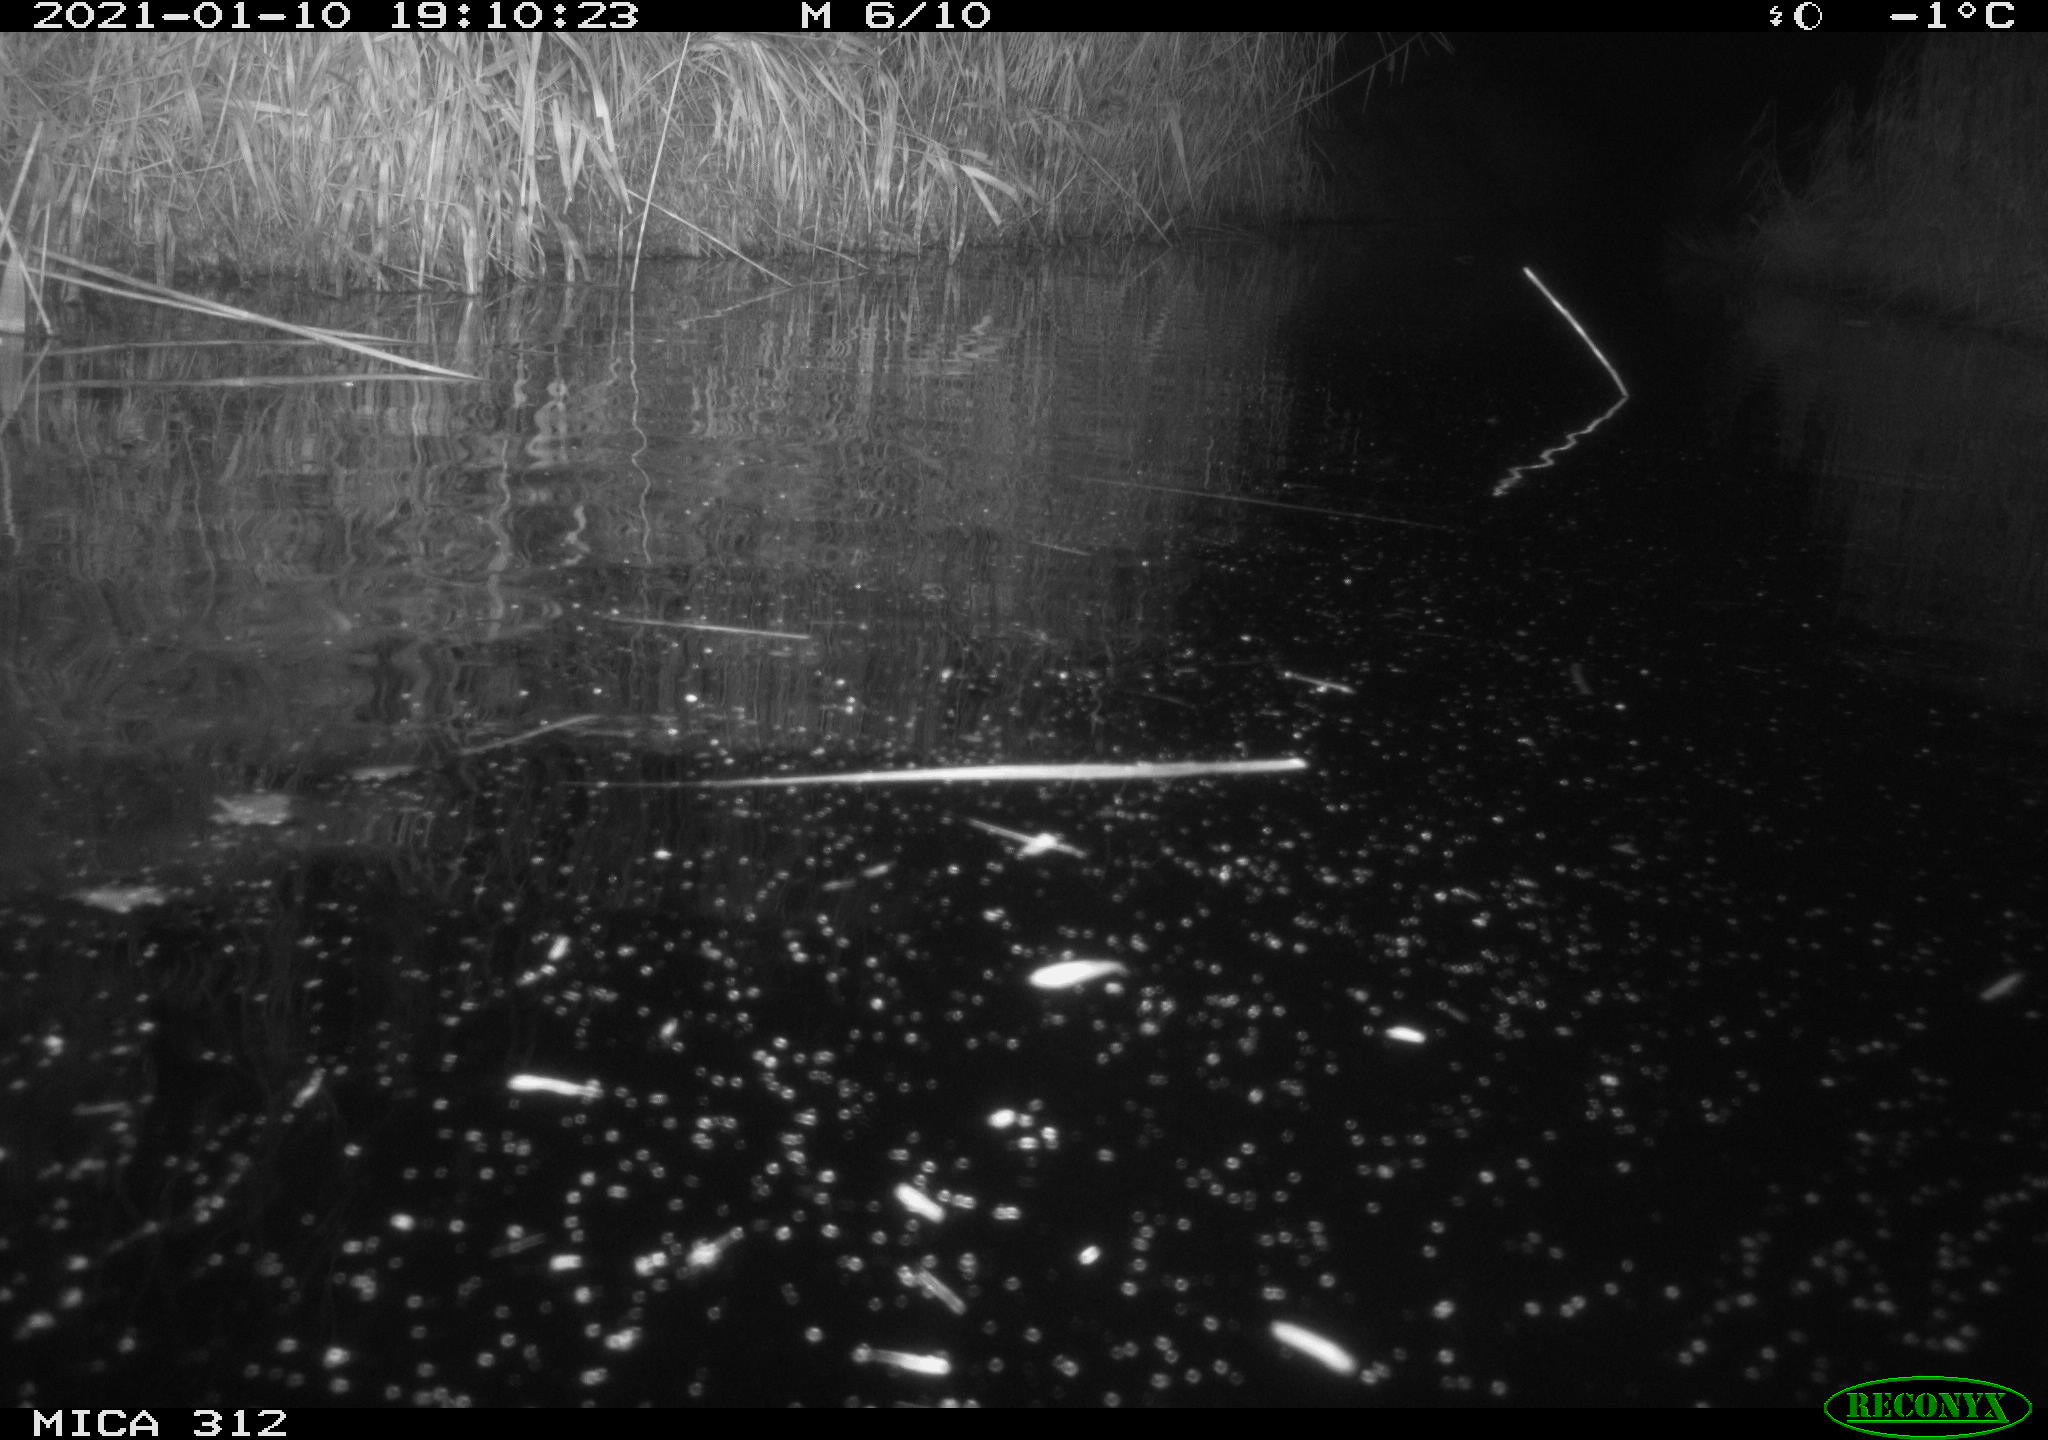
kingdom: Animalia
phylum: Chordata
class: Mammalia
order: Rodentia
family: Muridae
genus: Rattus
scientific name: Rattus norvegicus
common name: Brown rat
